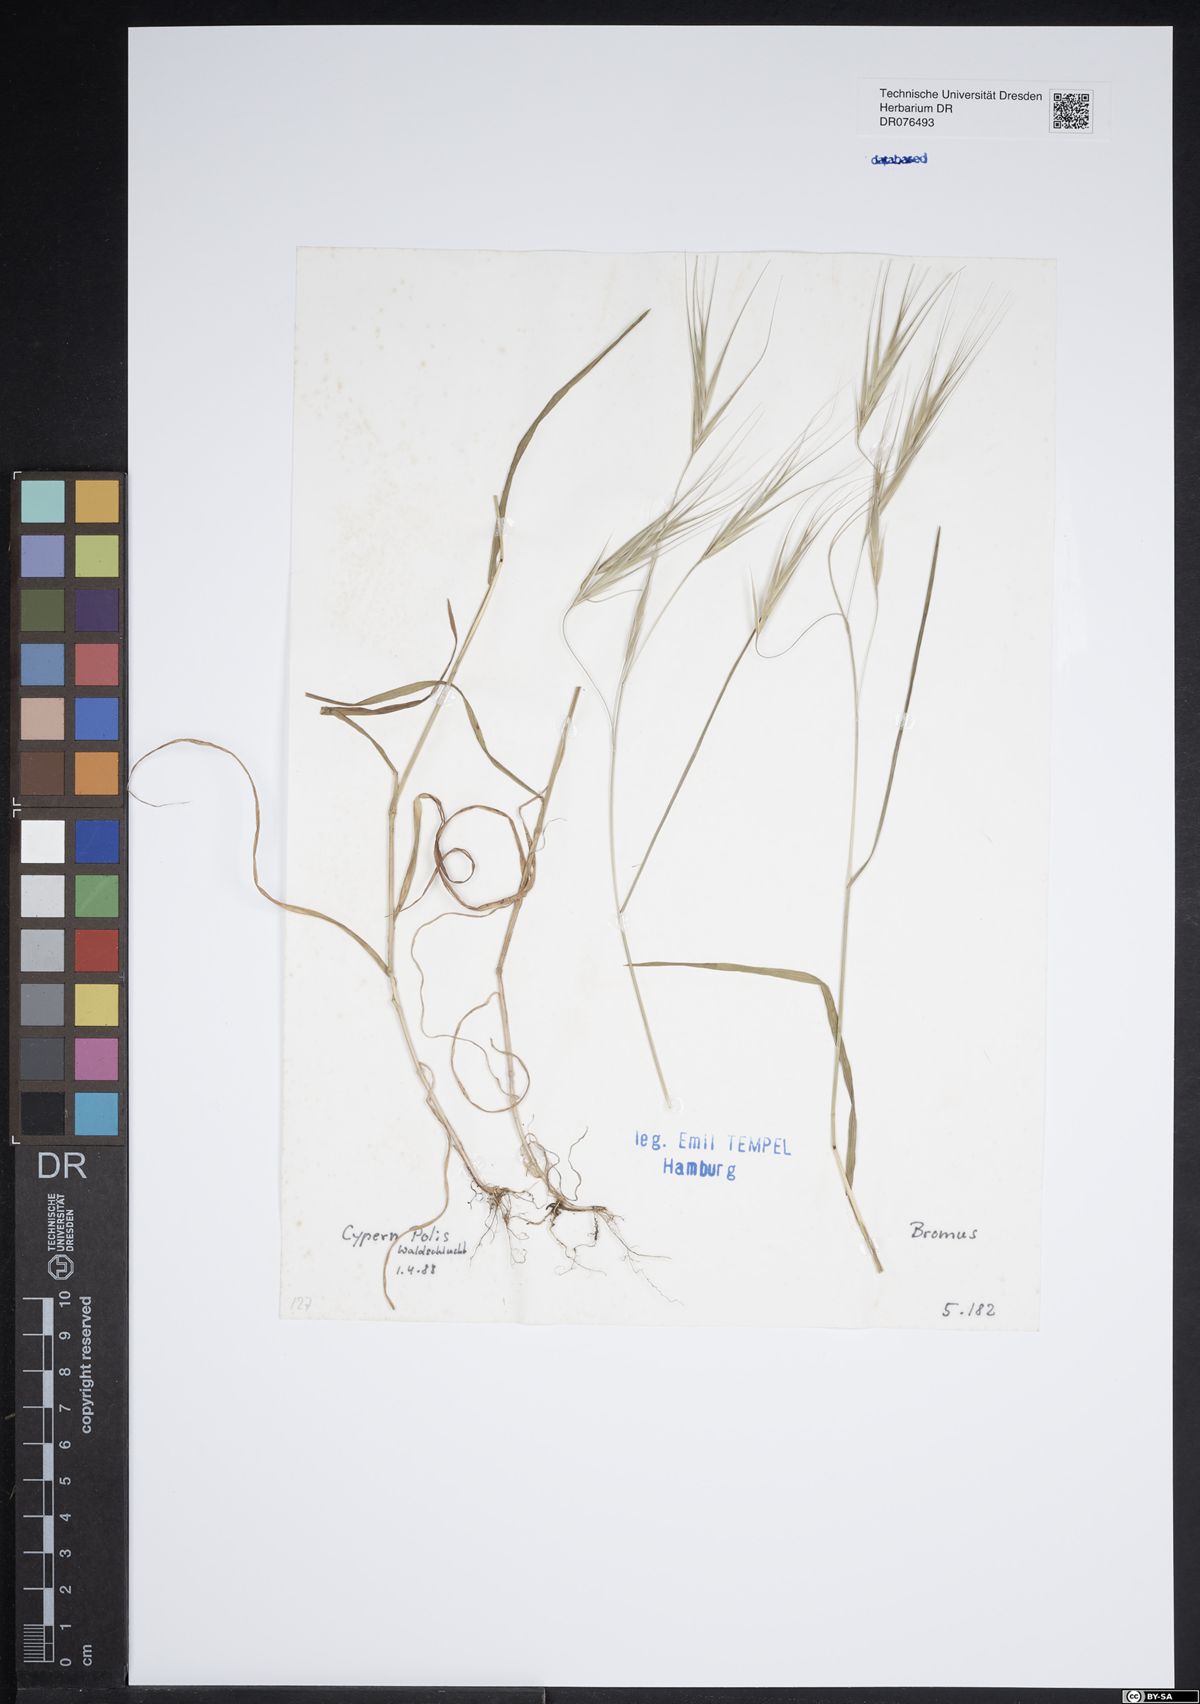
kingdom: Plantae
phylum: Tracheophyta
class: Liliopsida
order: Poales
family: Poaceae
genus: Bromus
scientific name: Bromus
